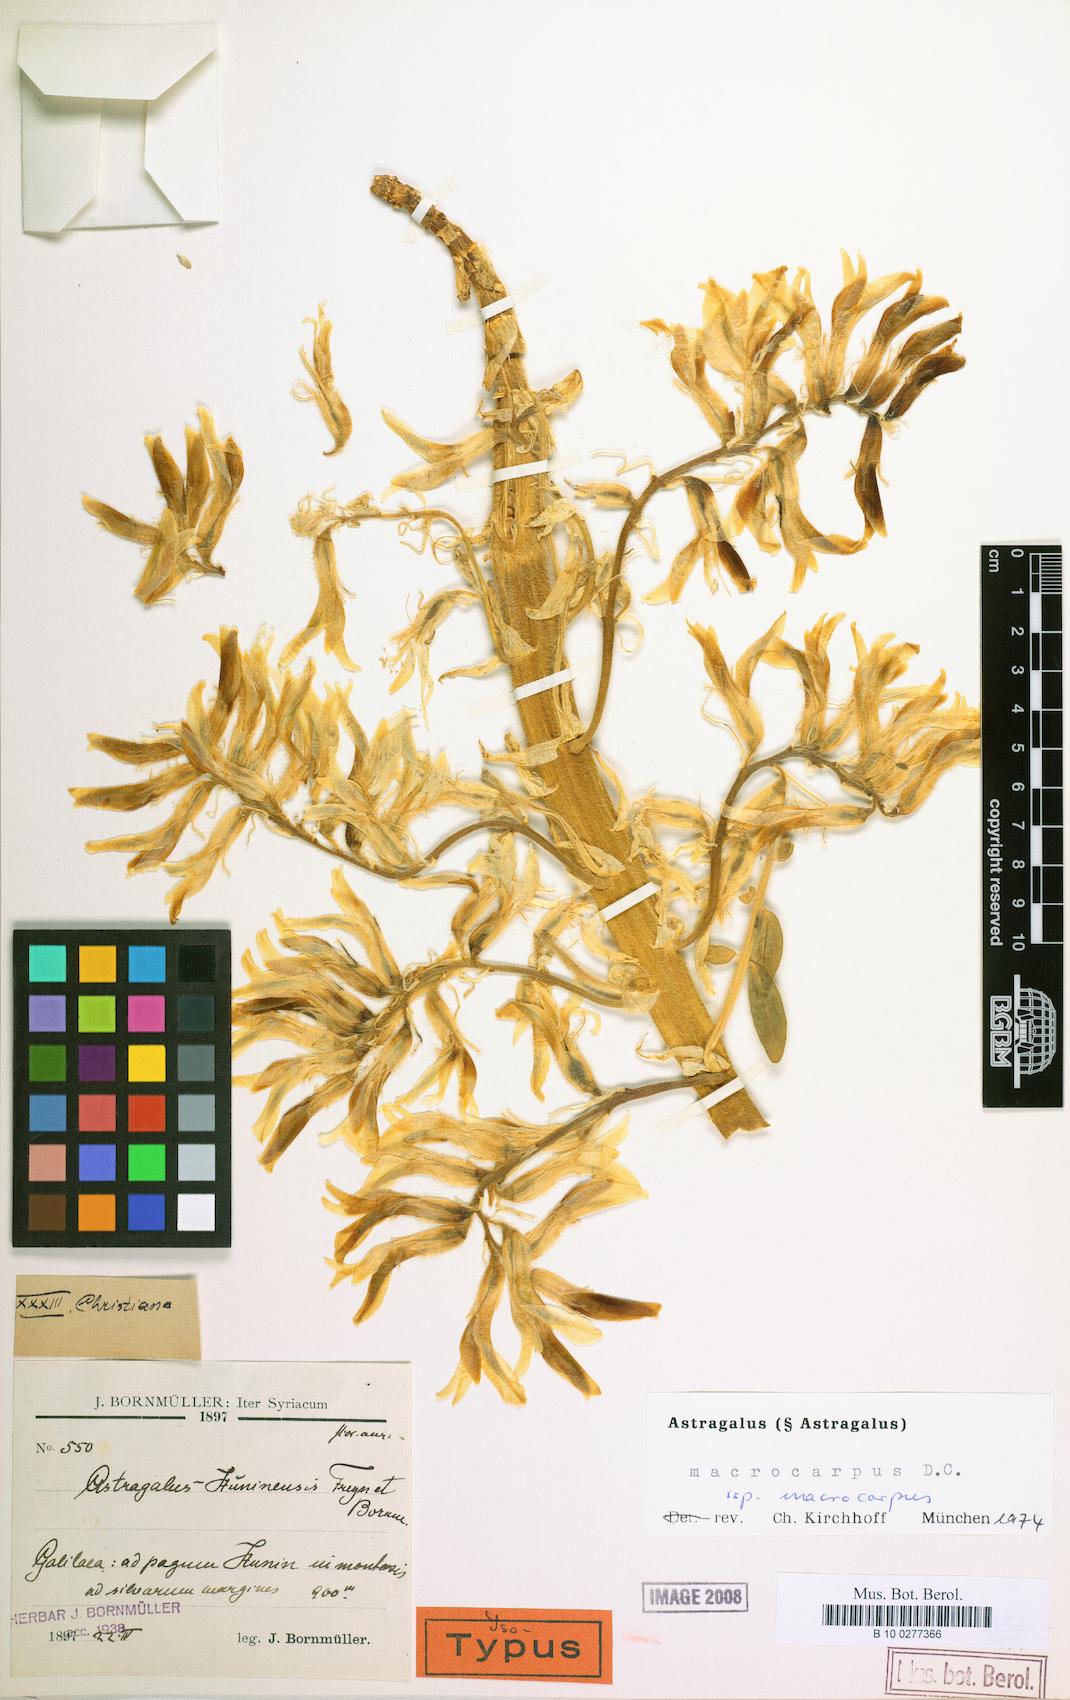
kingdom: Plantae
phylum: Tracheophyta
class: Magnoliopsida
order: Fabales
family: Fabaceae
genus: Astragalus
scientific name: Astragalus macrocarpus
